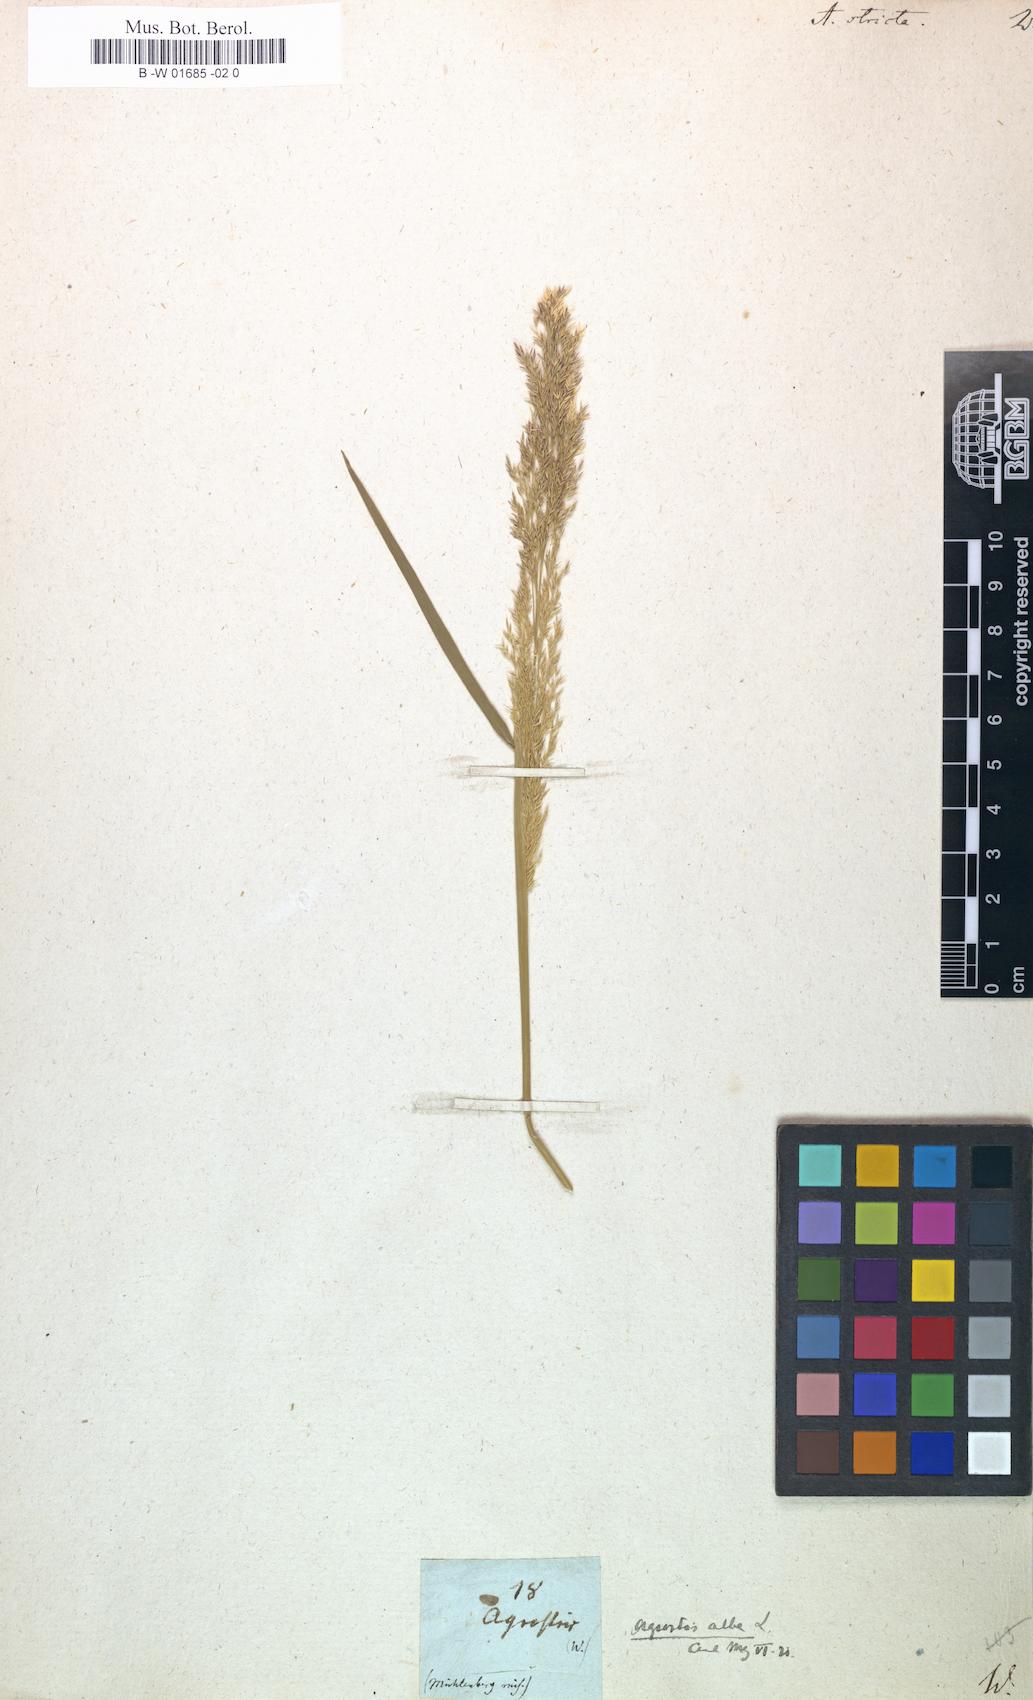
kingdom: Plantae
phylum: Tracheophyta
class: Liliopsida
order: Poales
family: Poaceae
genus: Agrostis
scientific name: Agrostis vinealis
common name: Brown bent
